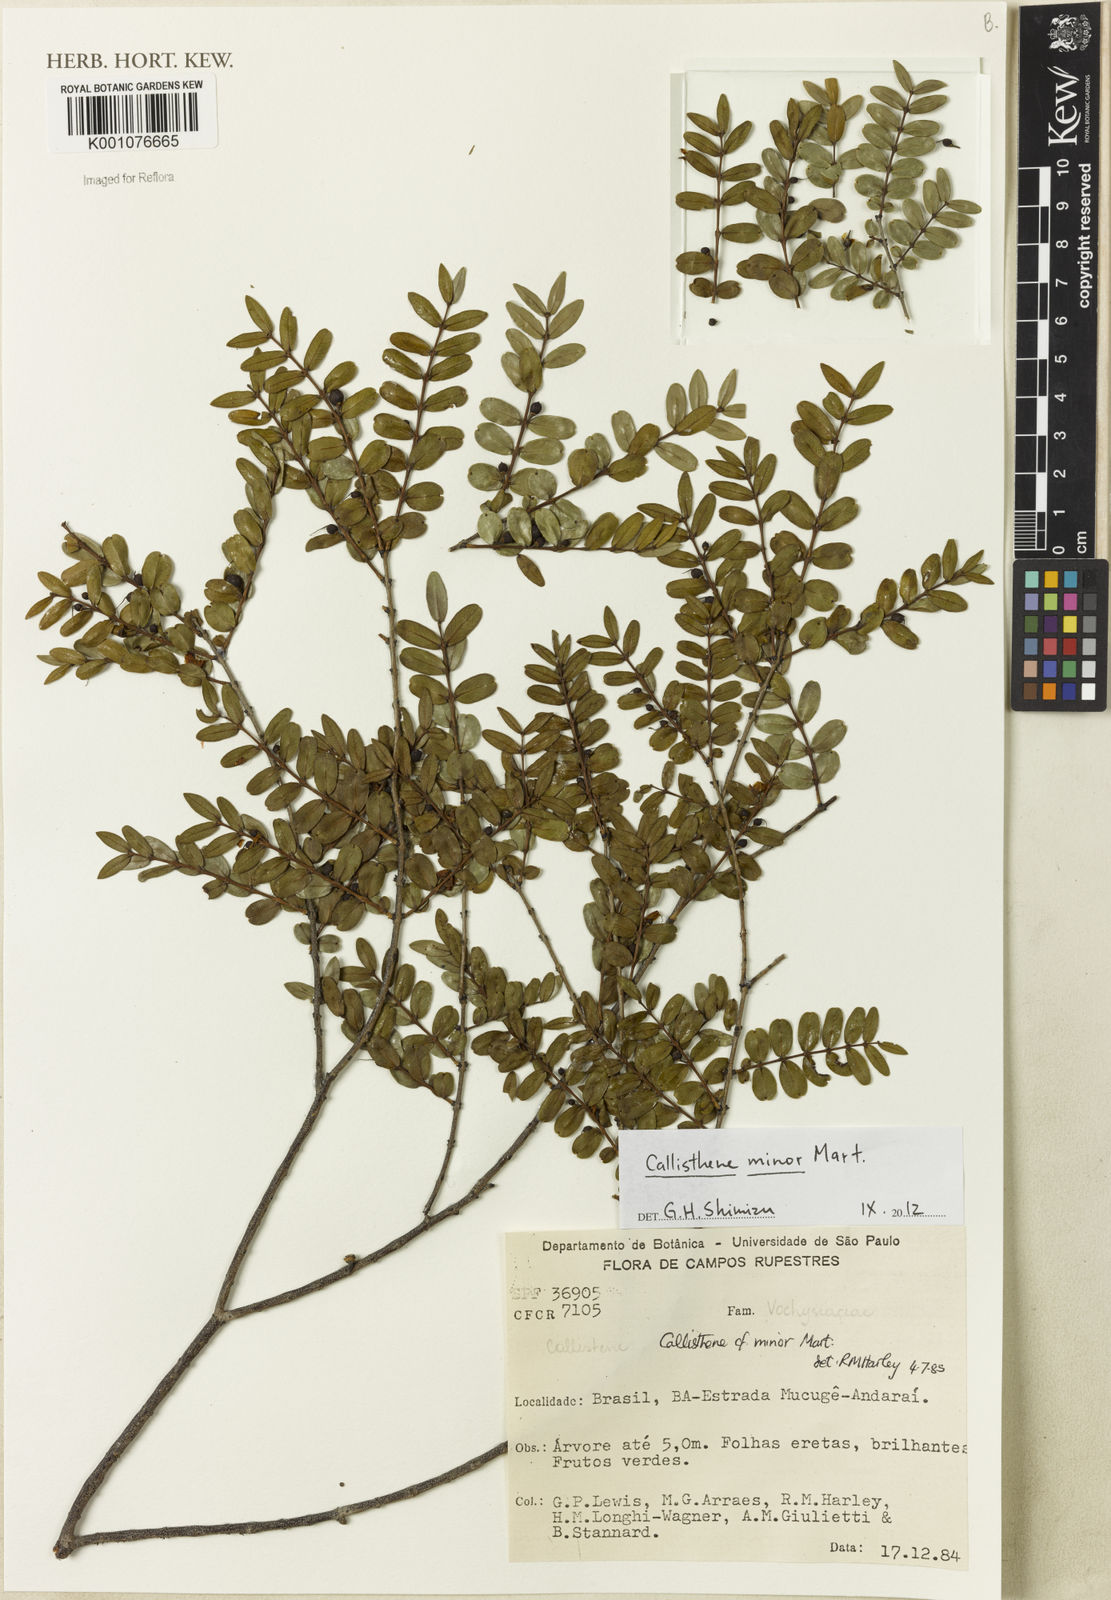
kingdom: Plantae
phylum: Tracheophyta
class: Magnoliopsida
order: Myrtales
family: Vochysiaceae
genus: Callisthene
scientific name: Callisthene minor
